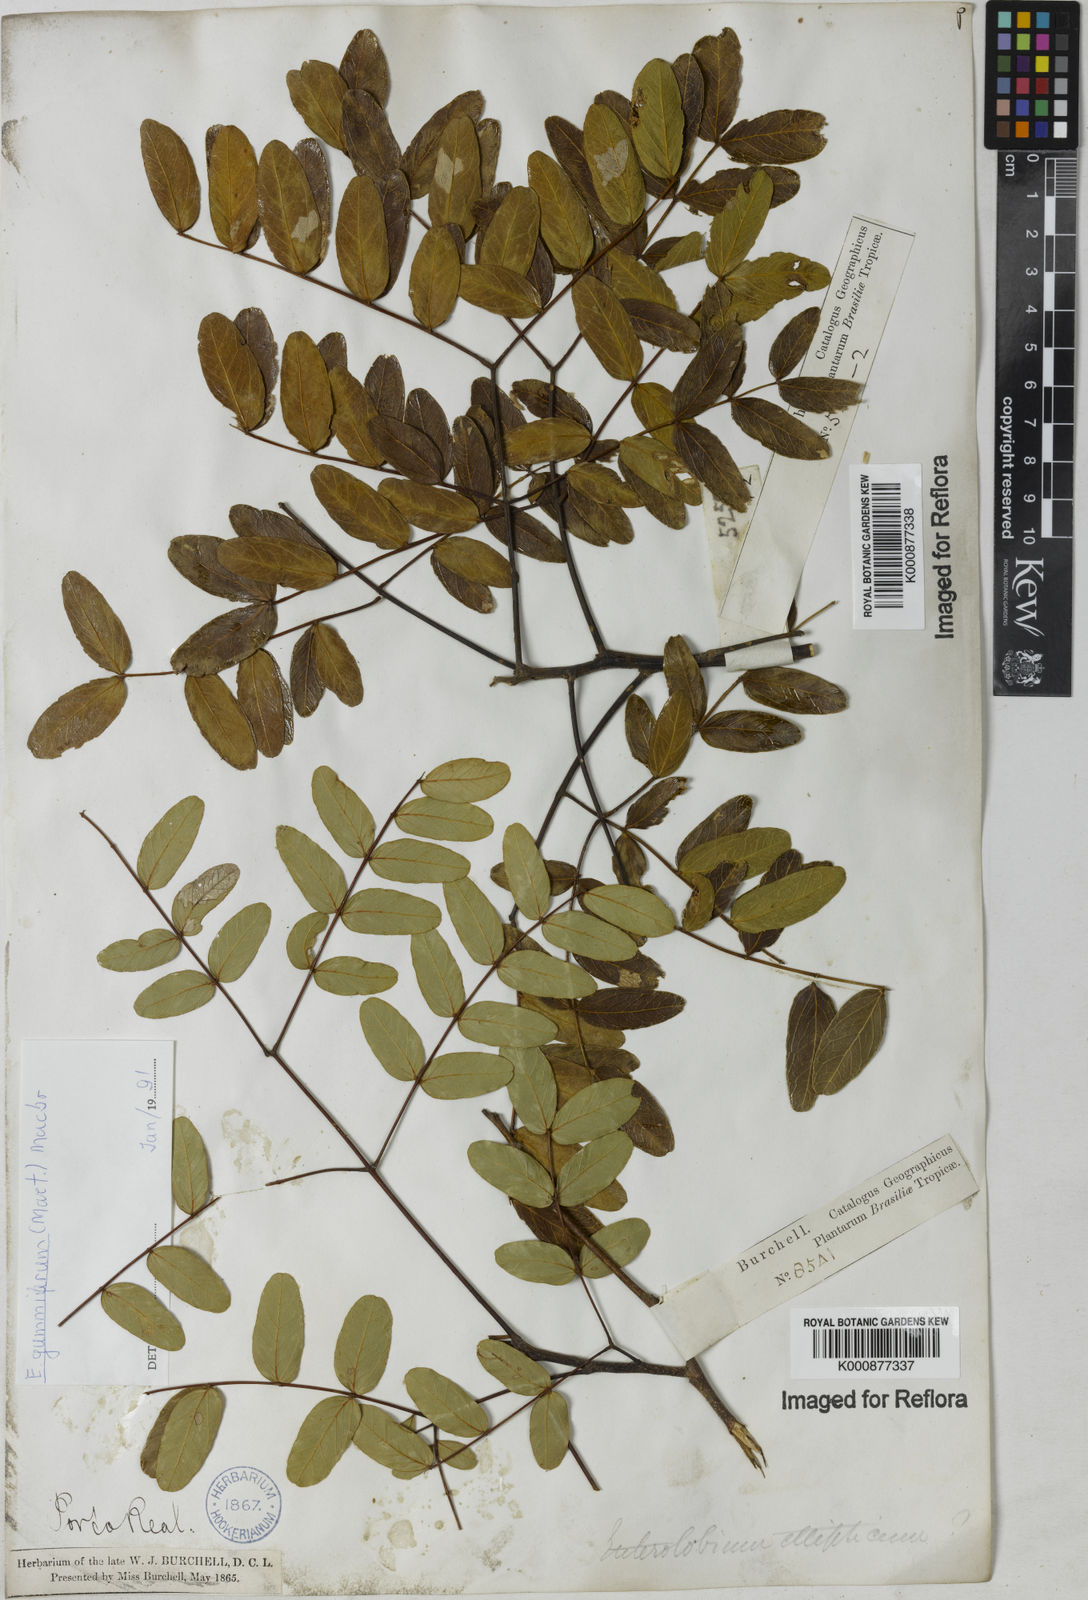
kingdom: Plantae
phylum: Tracheophyta
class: Magnoliopsida
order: Fabales
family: Fabaceae
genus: Enterolobium
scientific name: Enterolobium gummiferum
